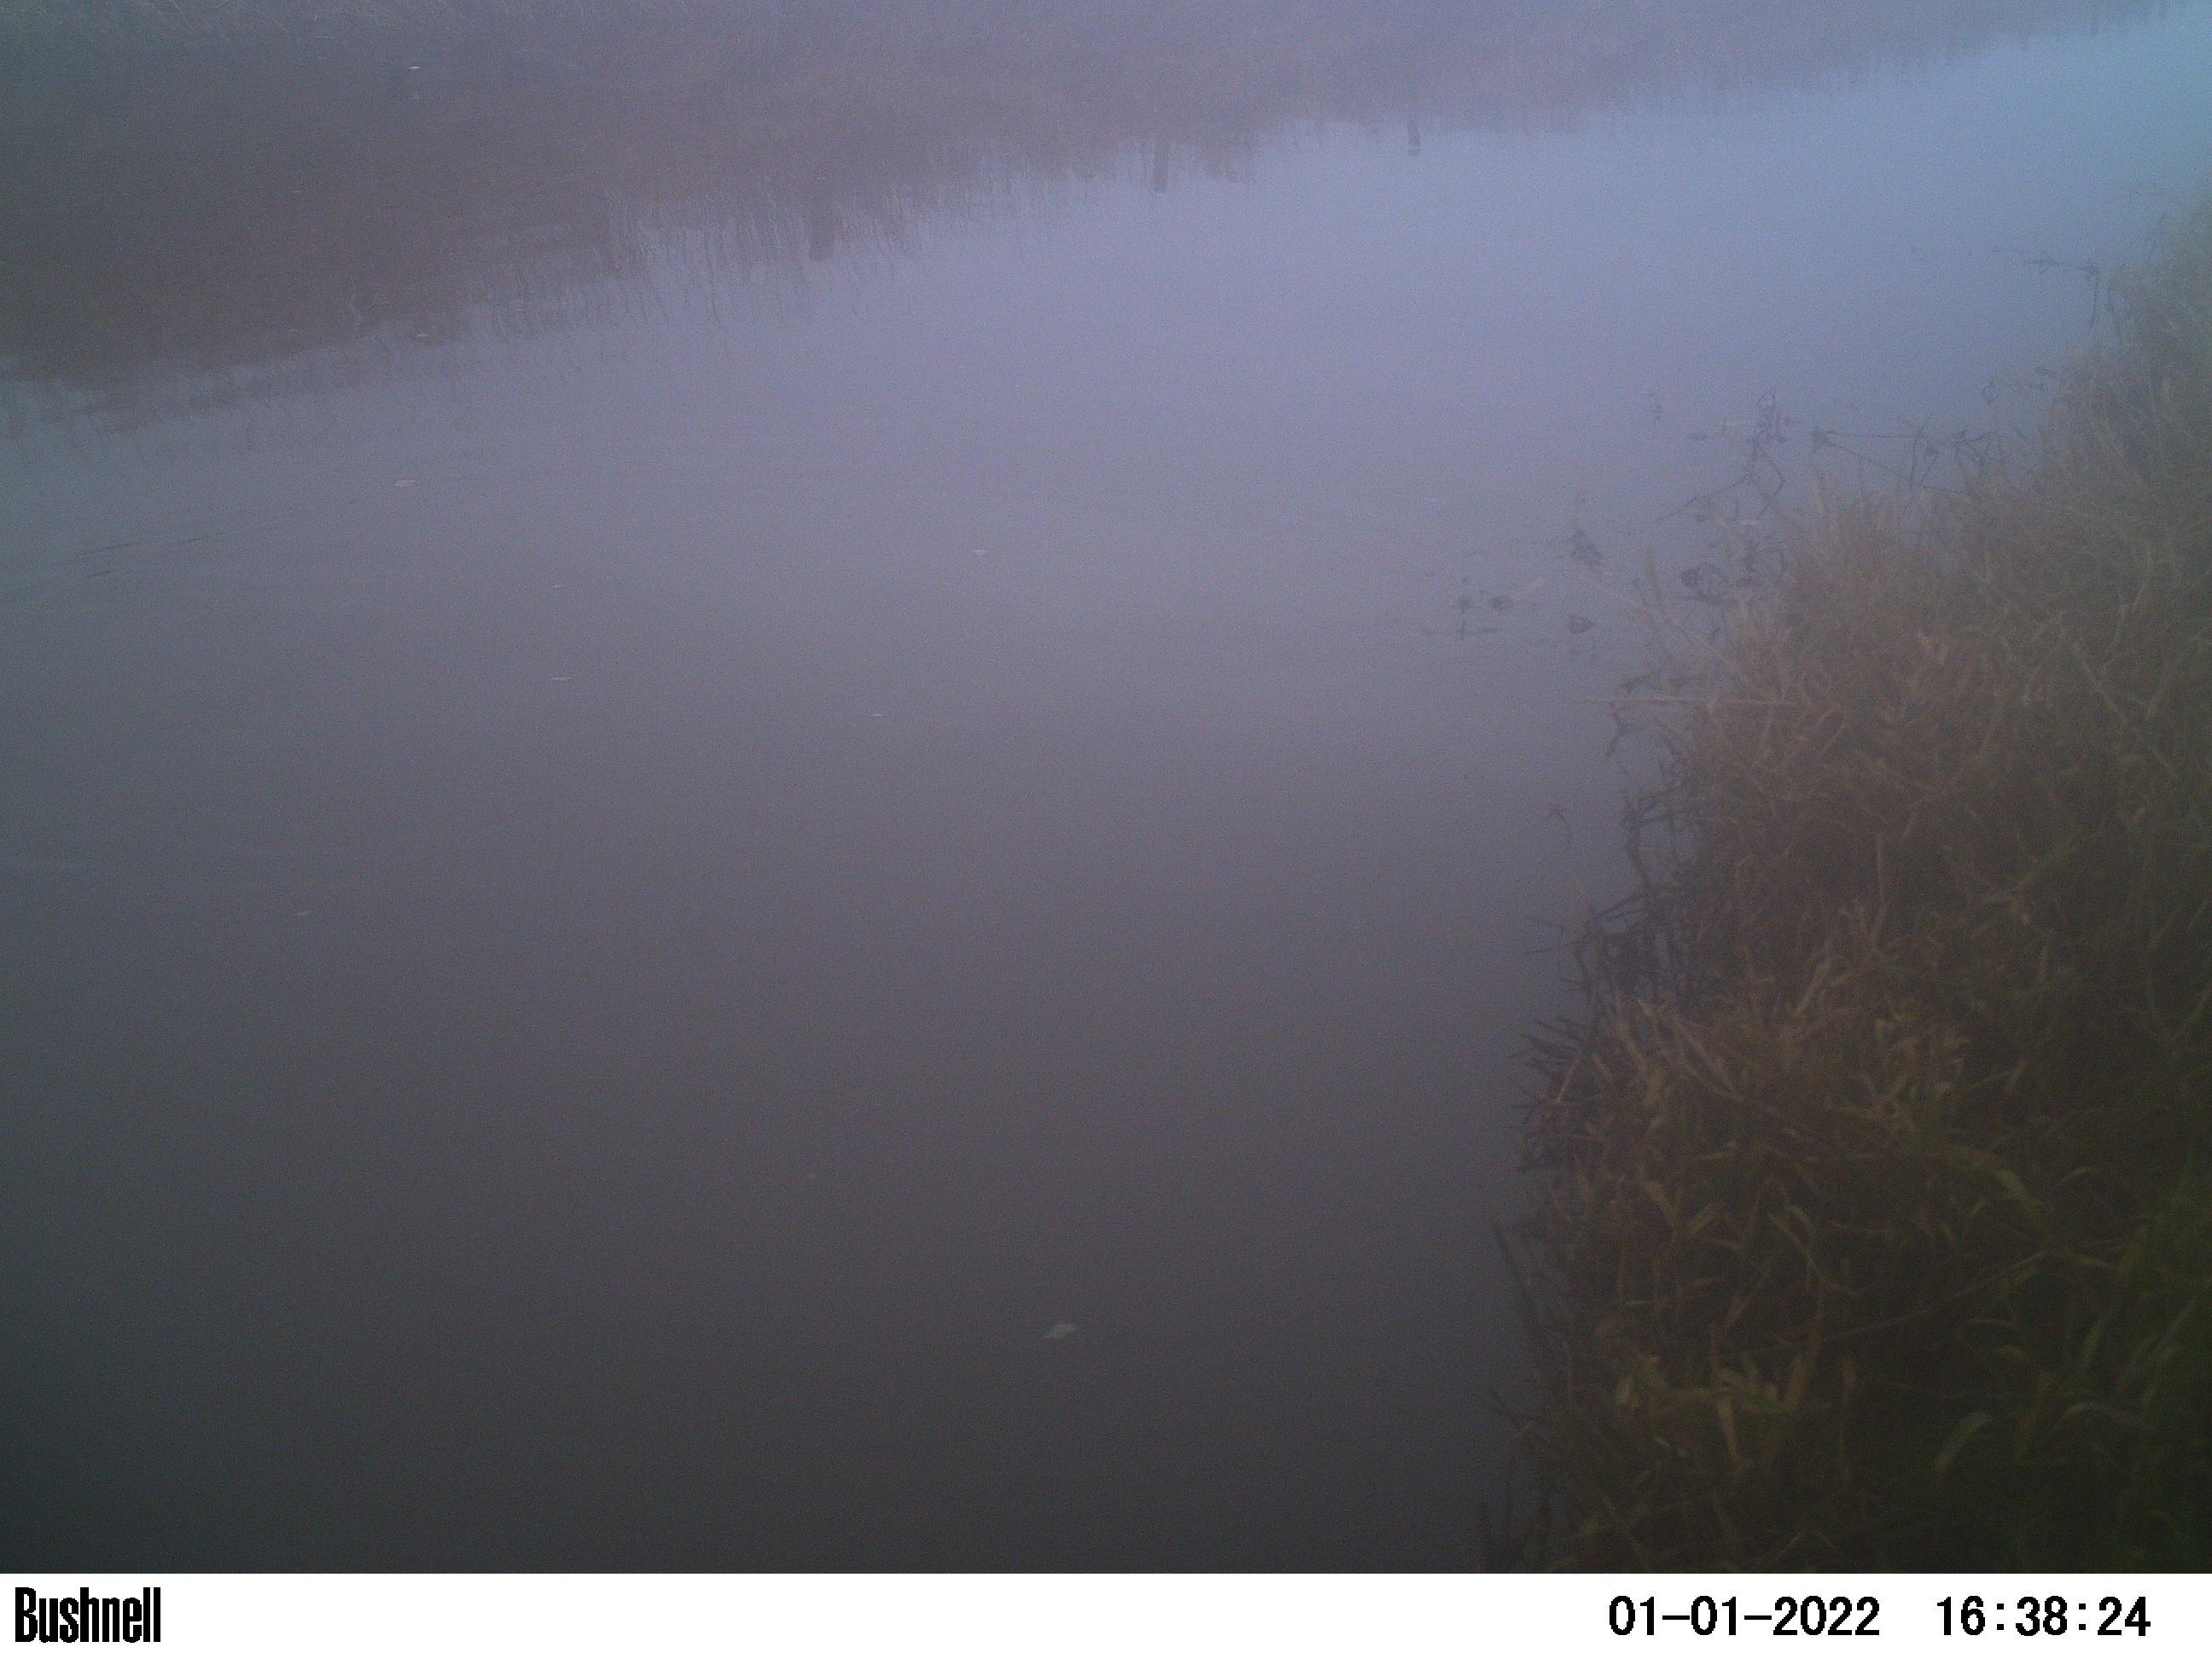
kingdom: Animalia
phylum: Chordata
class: Aves
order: Gruiformes
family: Rallidae
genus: Fulica
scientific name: Fulica atra
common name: Eurasian coot
